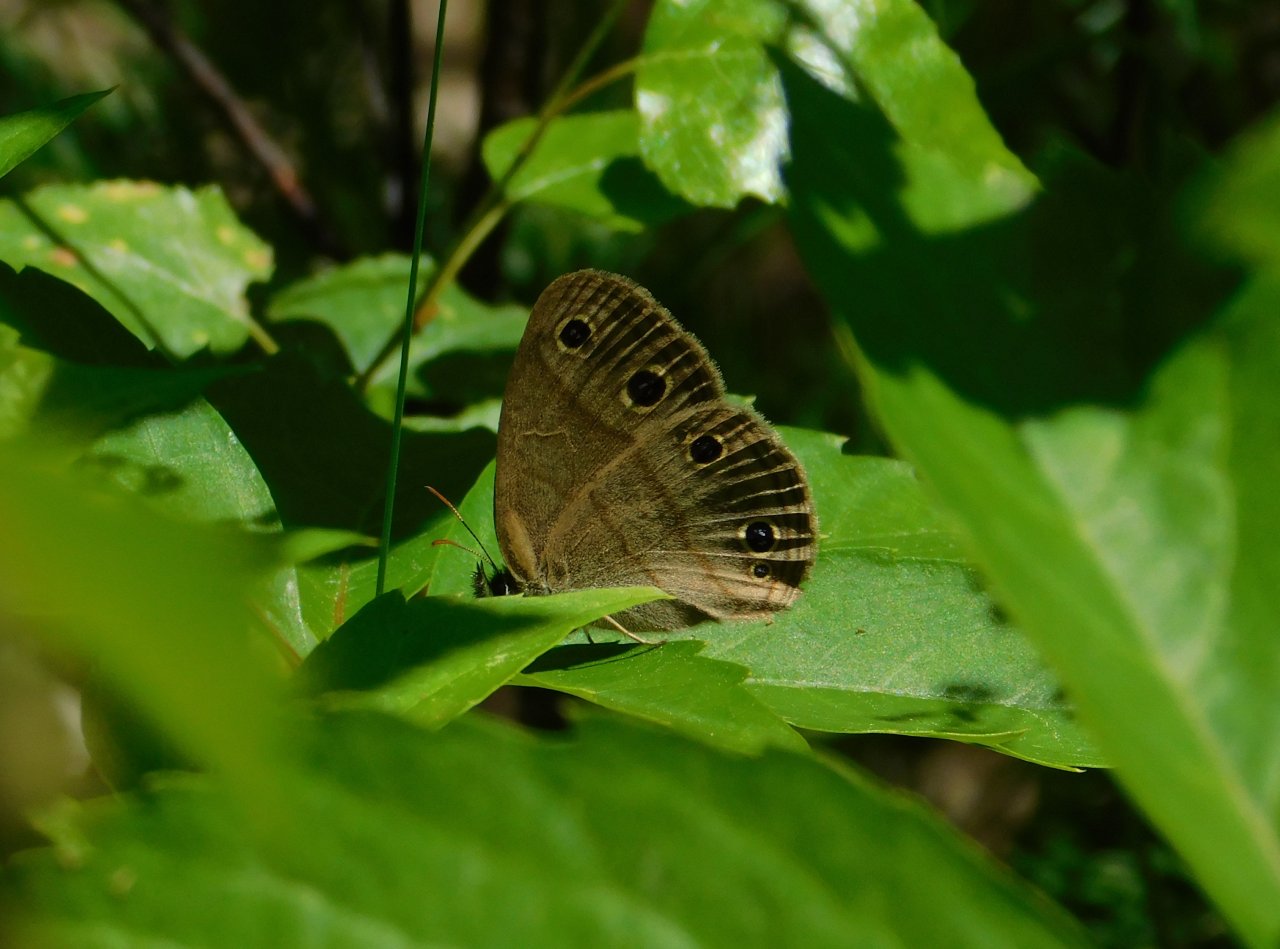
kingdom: Animalia
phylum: Arthropoda
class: Insecta
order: Lepidoptera
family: Nymphalidae
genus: Euptychia
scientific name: Euptychia cymela
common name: Little Wood Satyr
